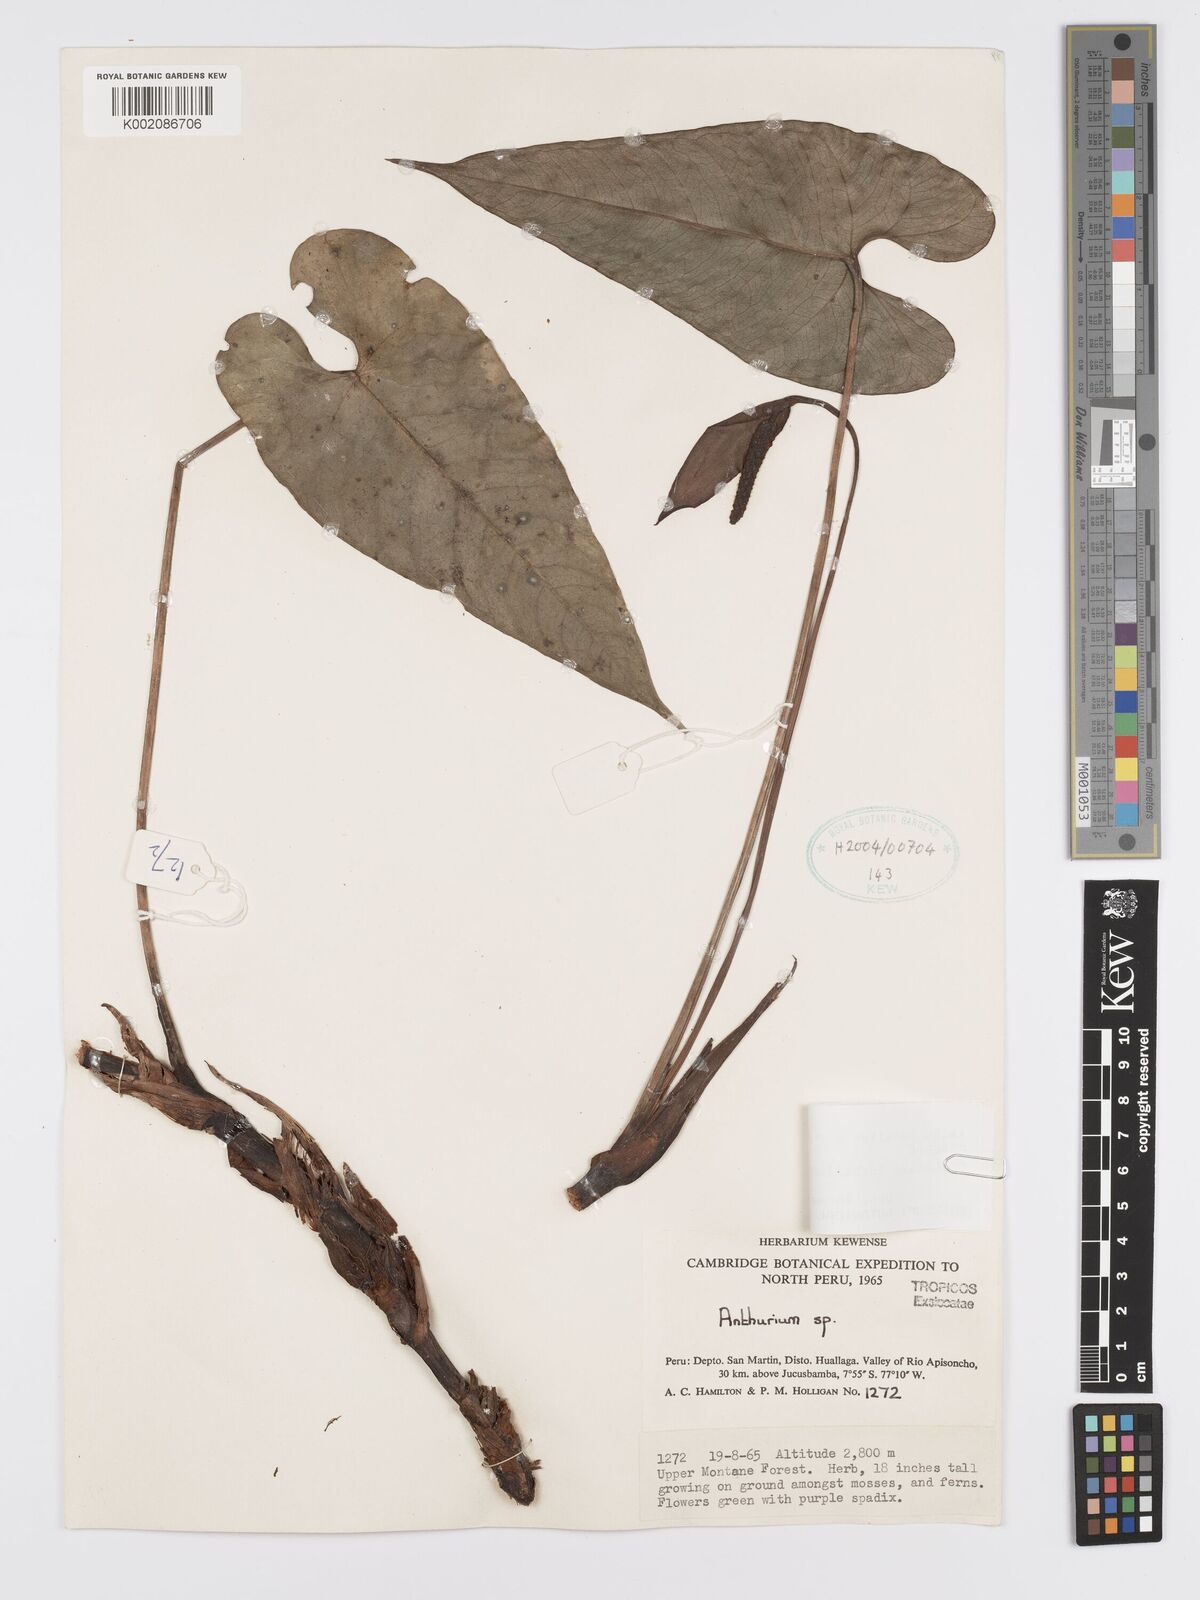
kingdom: Plantae
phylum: Tracheophyta
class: Liliopsida
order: Alismatales
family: Araceae
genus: Anthurium
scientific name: Anthurium oxybelium
